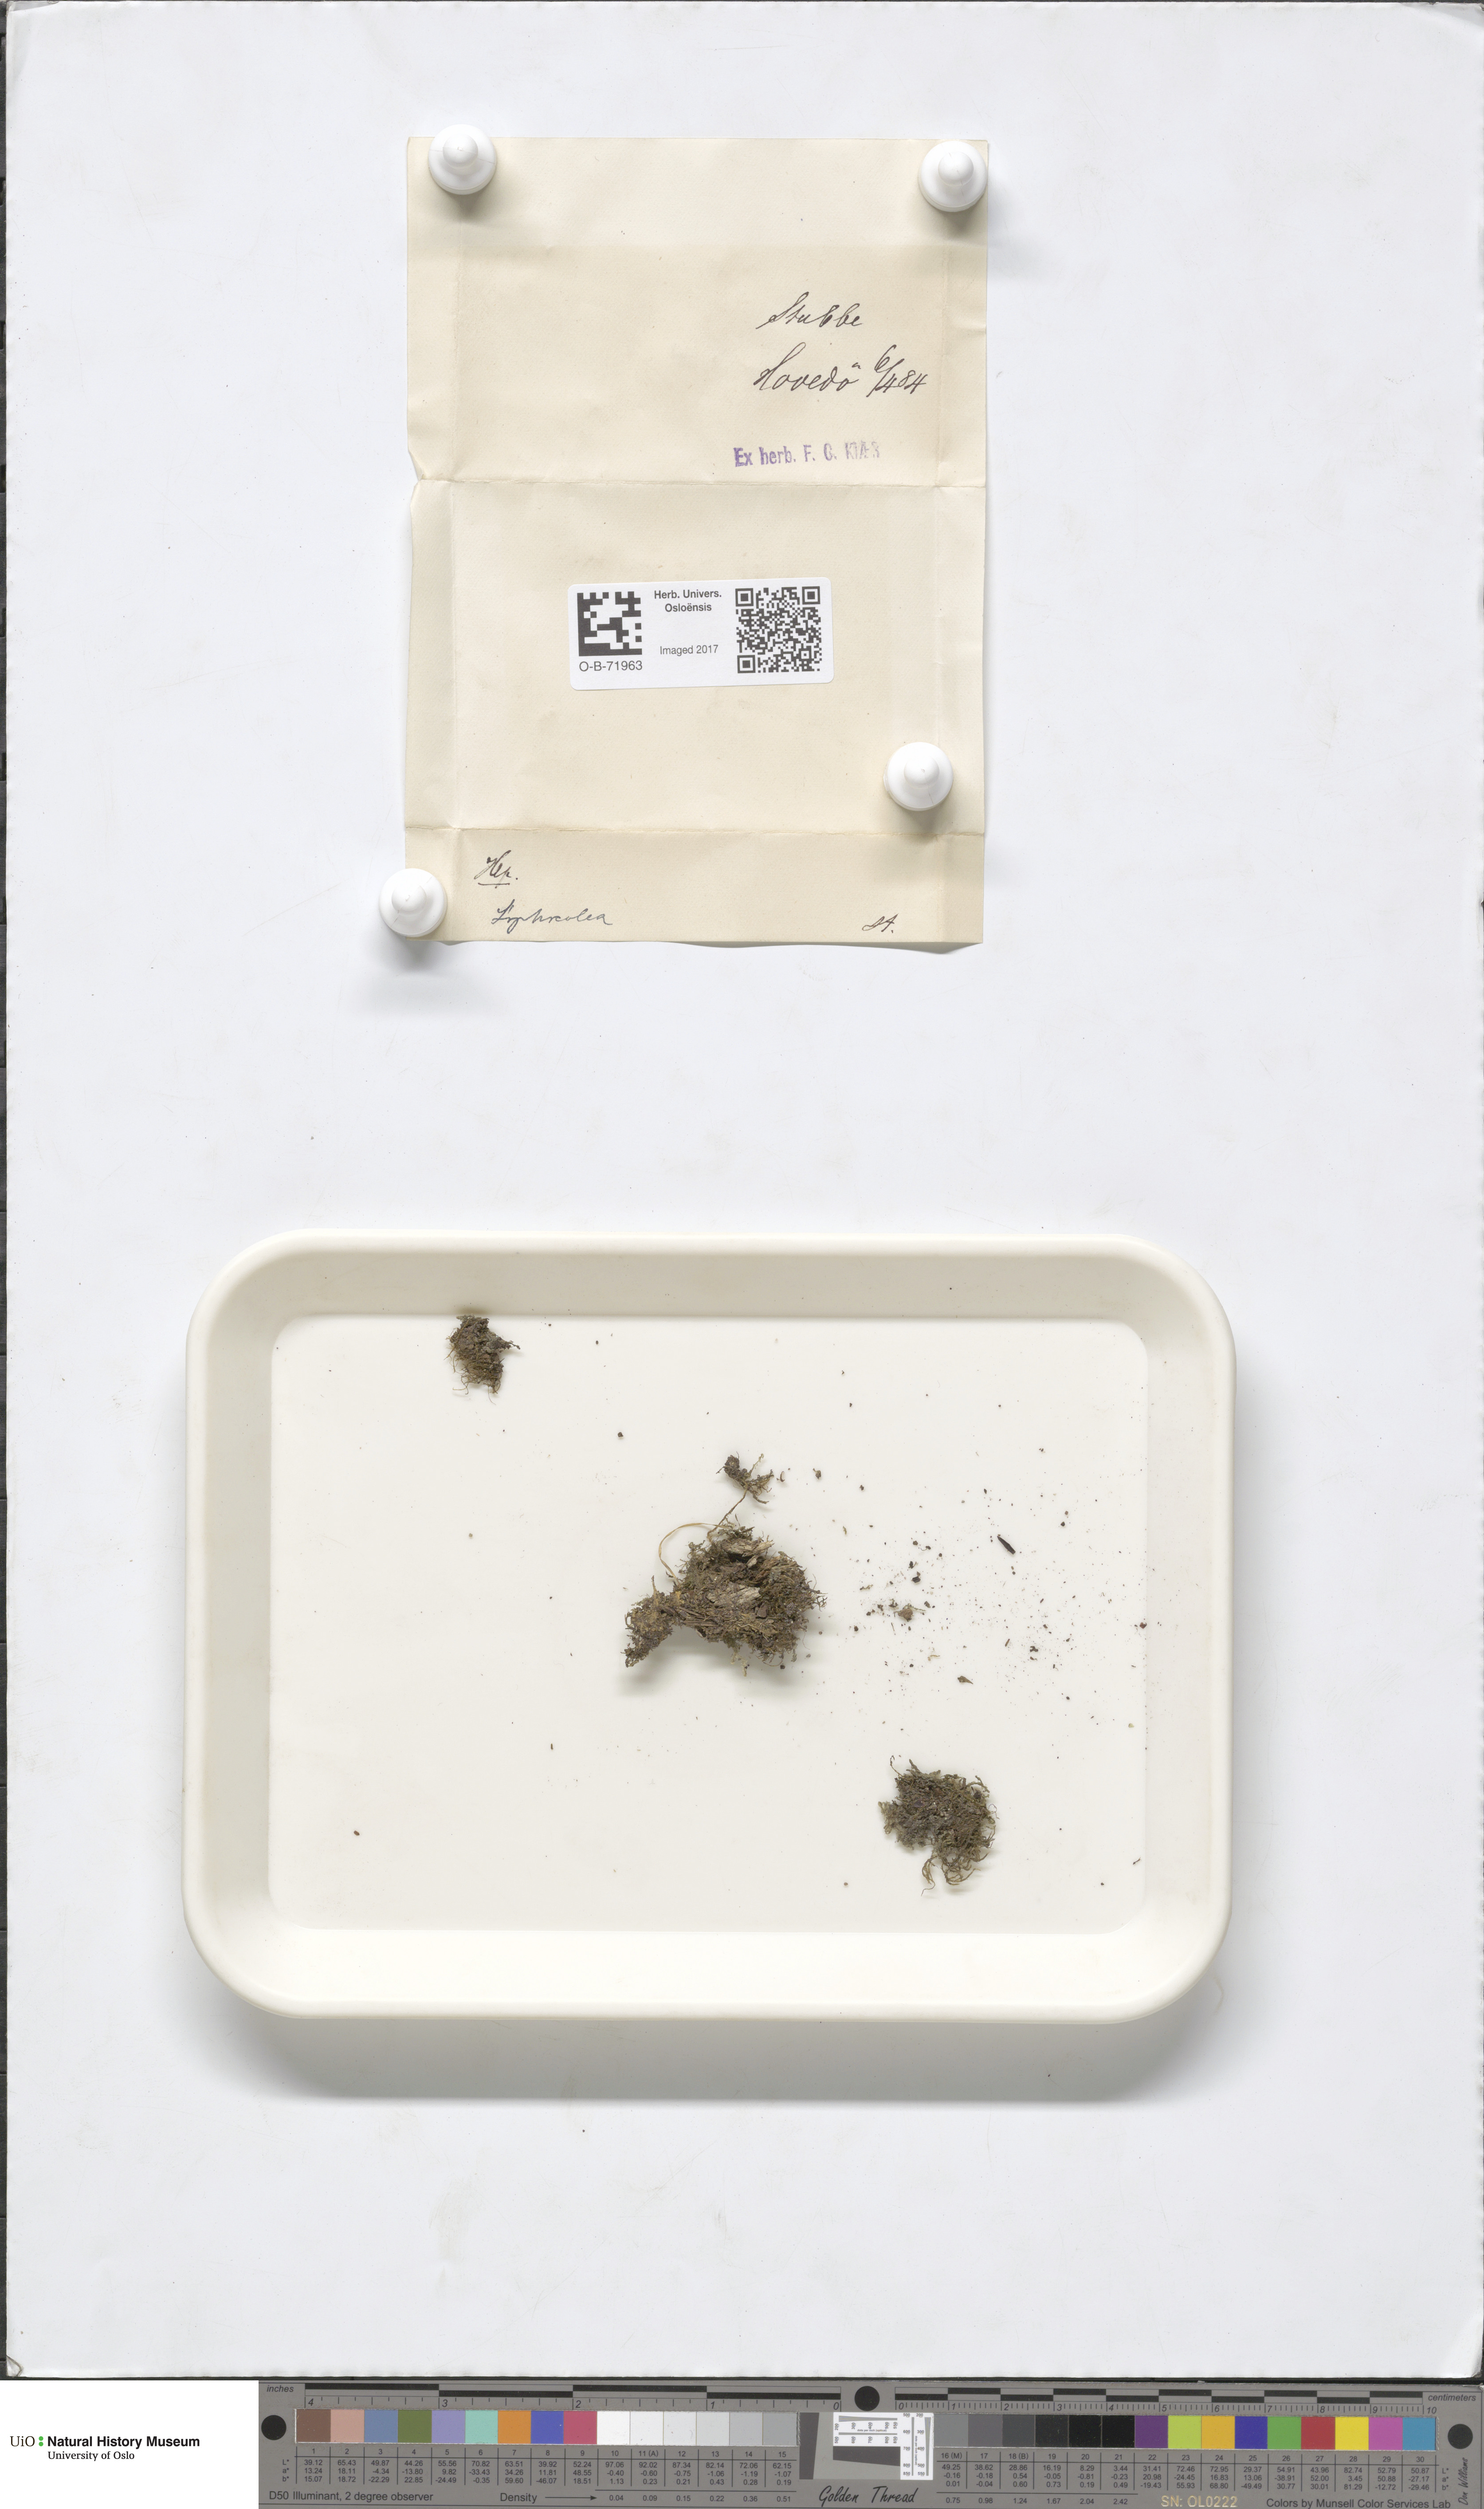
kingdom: Plantae
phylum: Marchantiophyta
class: Jungermanniopsida
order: Jungermanniales
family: Lophocoleaceae
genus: Lophocolea
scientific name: Lophocolea coadunata
